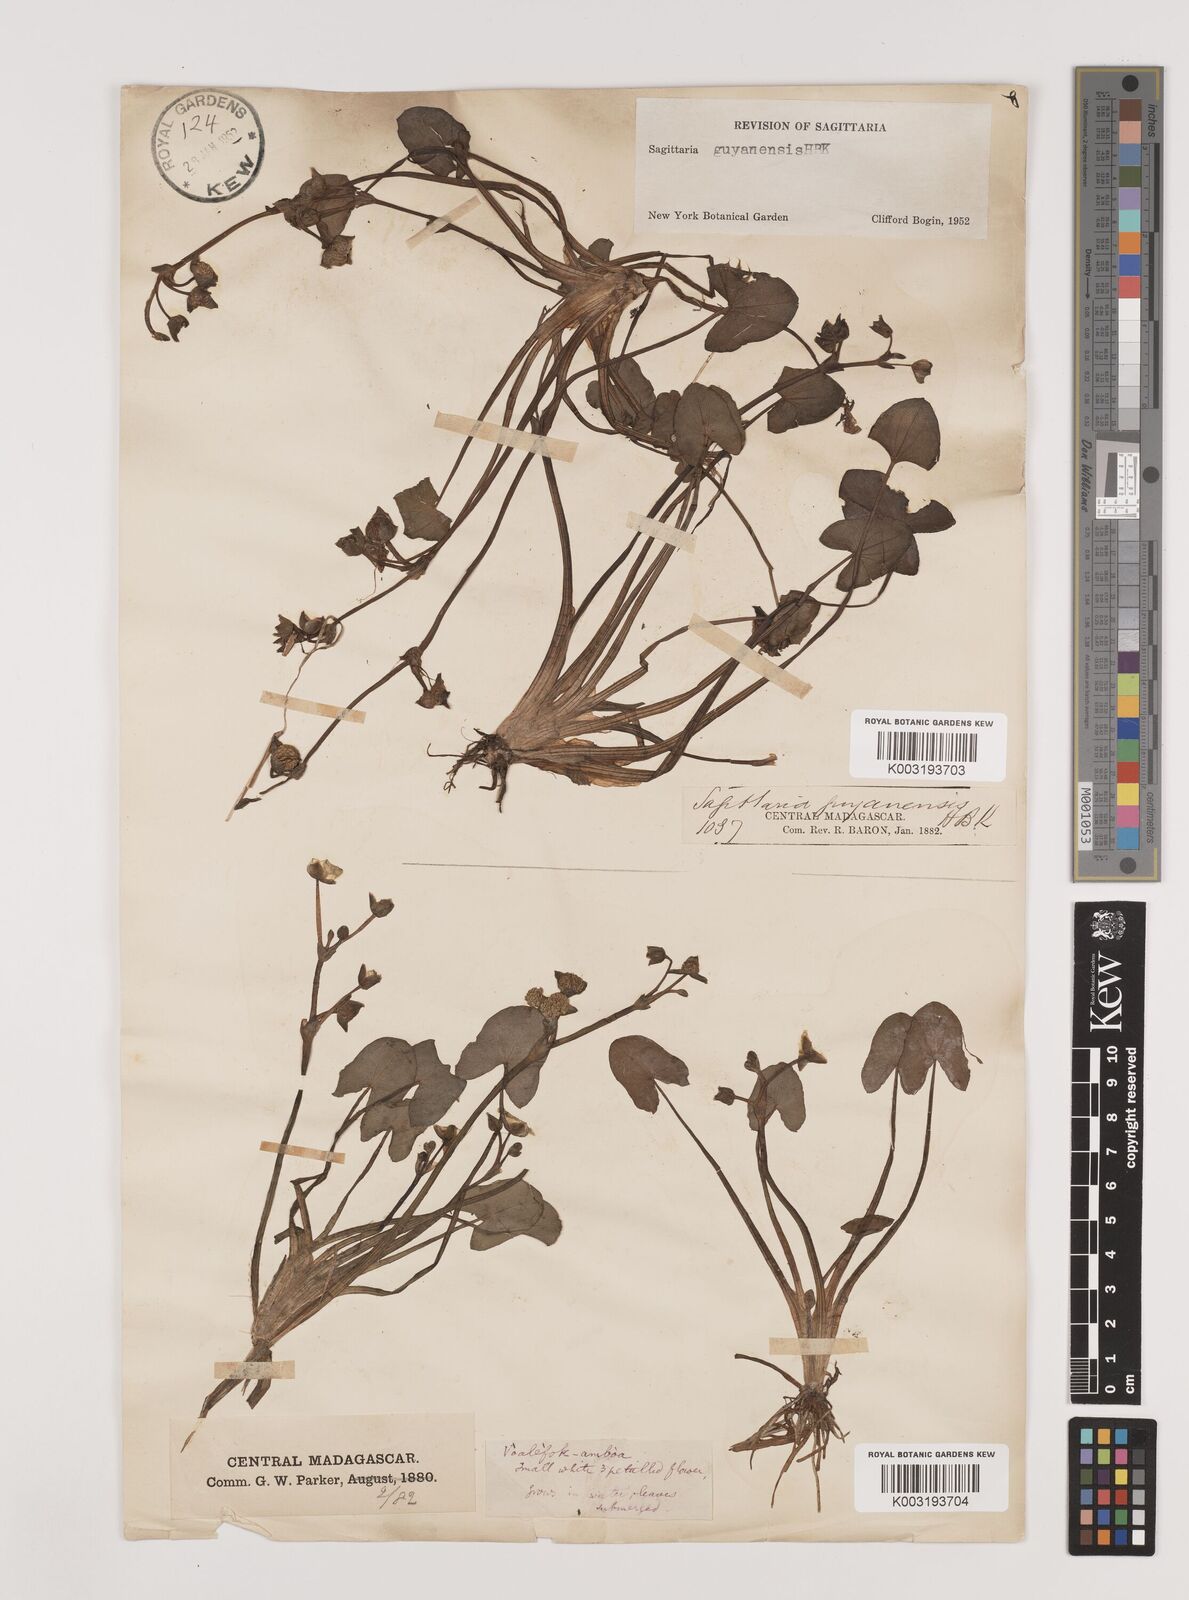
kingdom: Plantae
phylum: Tracheophyta
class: Liliopsida
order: Alismatales
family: Alismataceae
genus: Sagittaria
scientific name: Sagittaria guayanensis
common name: Guyanese arrowhead
